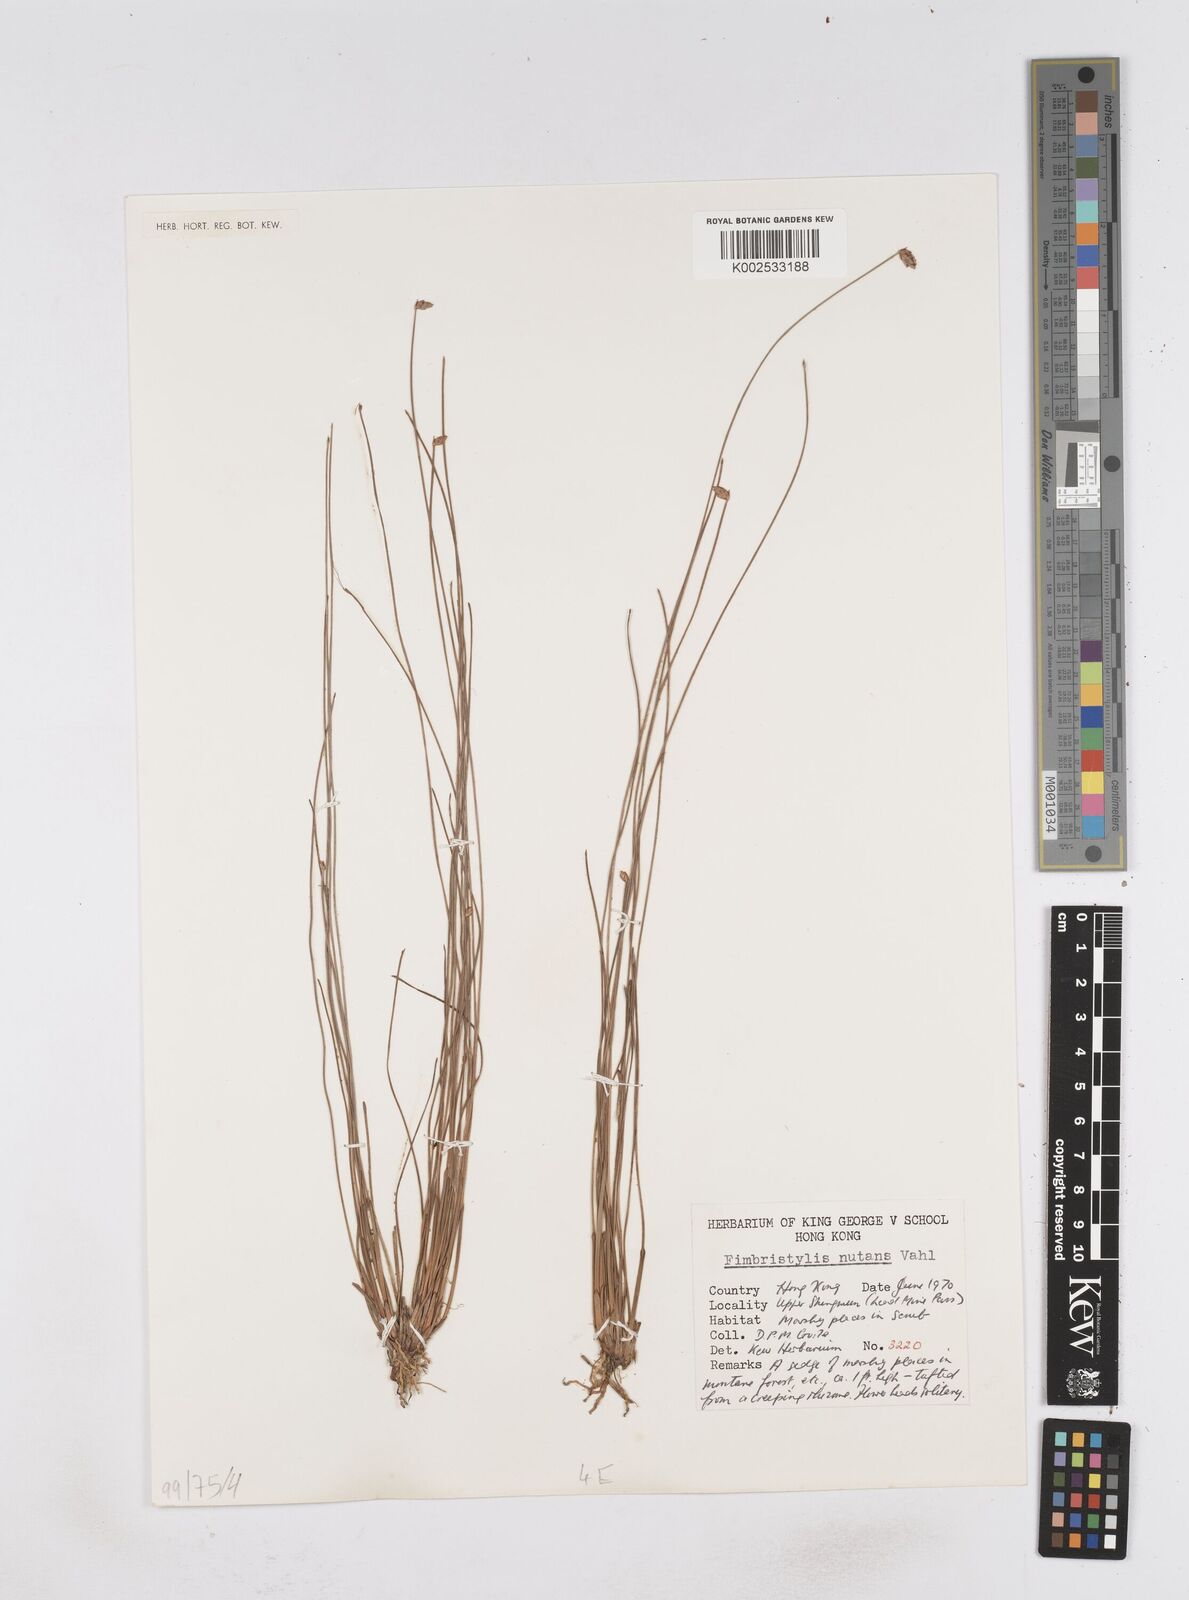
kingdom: Plantae
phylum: Tracheophyta
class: Liliopsida
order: Poales
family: Cyperaceae
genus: Fimbristylis
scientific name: Fimbristylis nutans
